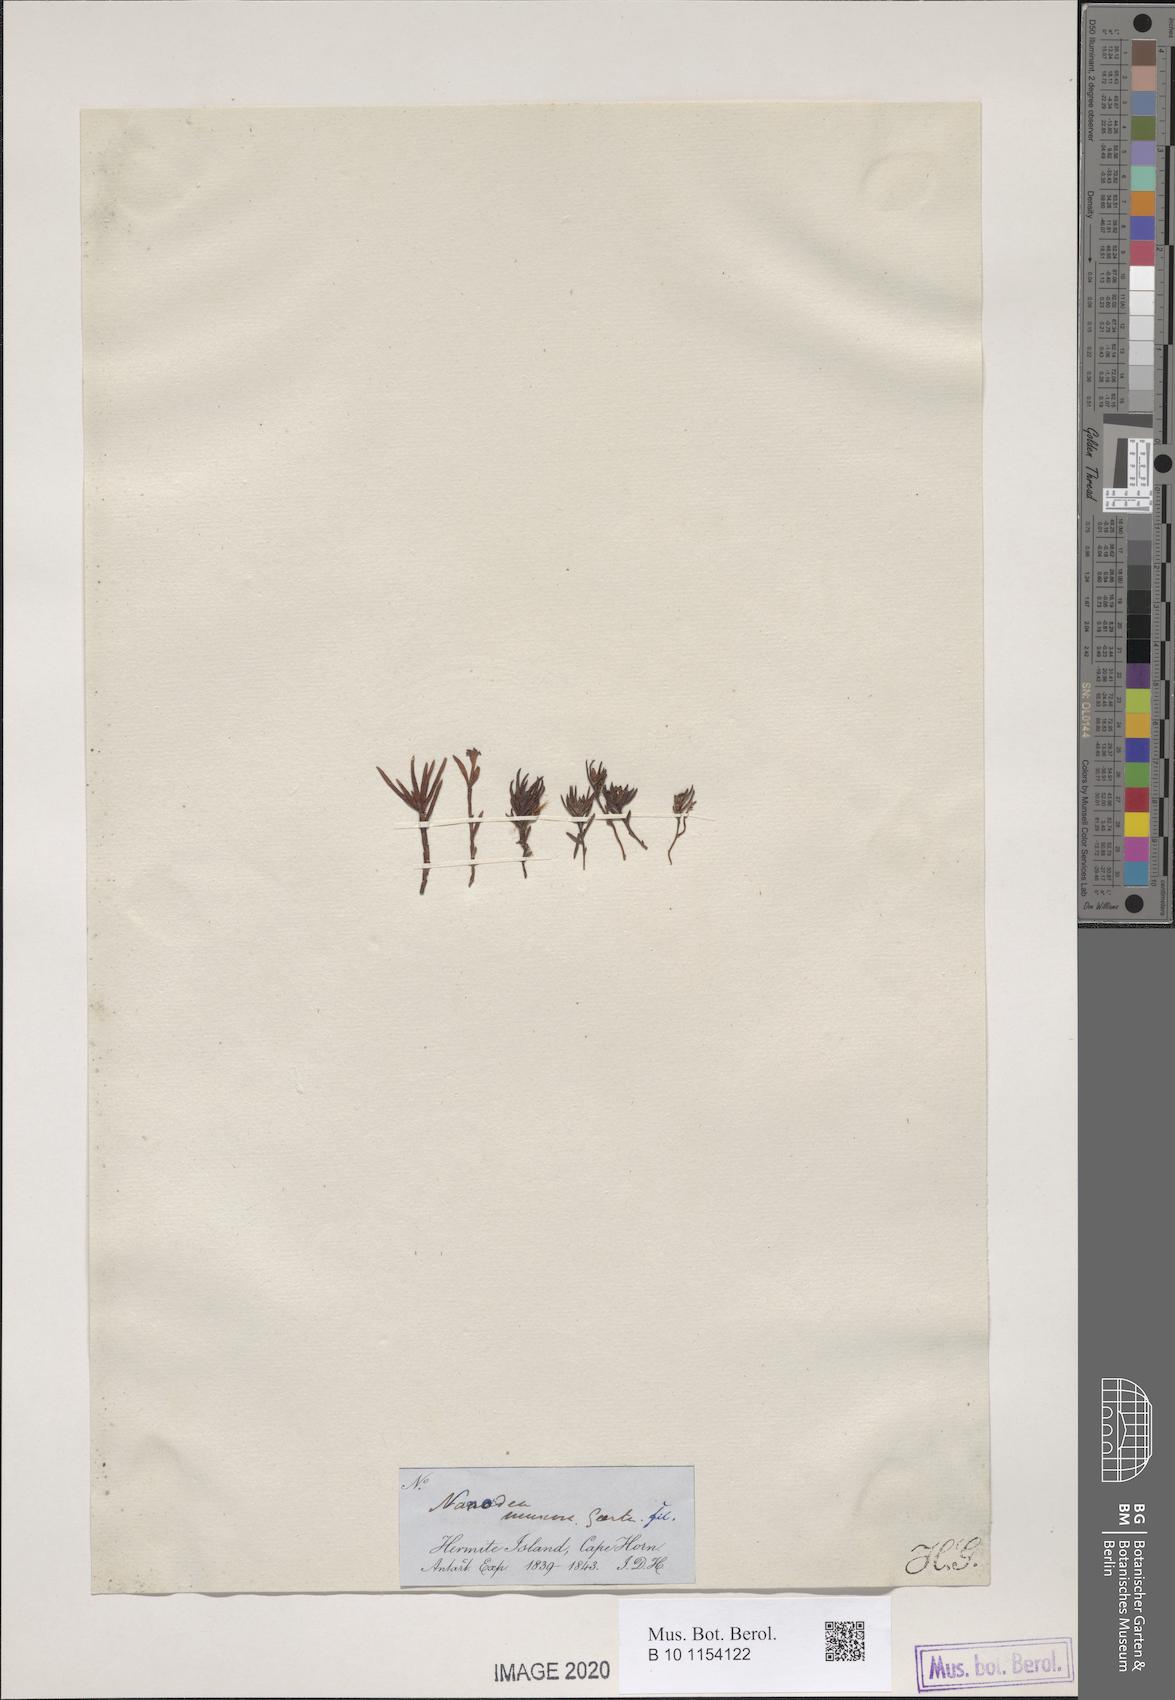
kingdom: Plantae
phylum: Tracheophyta
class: Magnoliopsida
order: Santalales
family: Nanodeaceae
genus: Nanodea
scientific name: Nanodea muscosa
